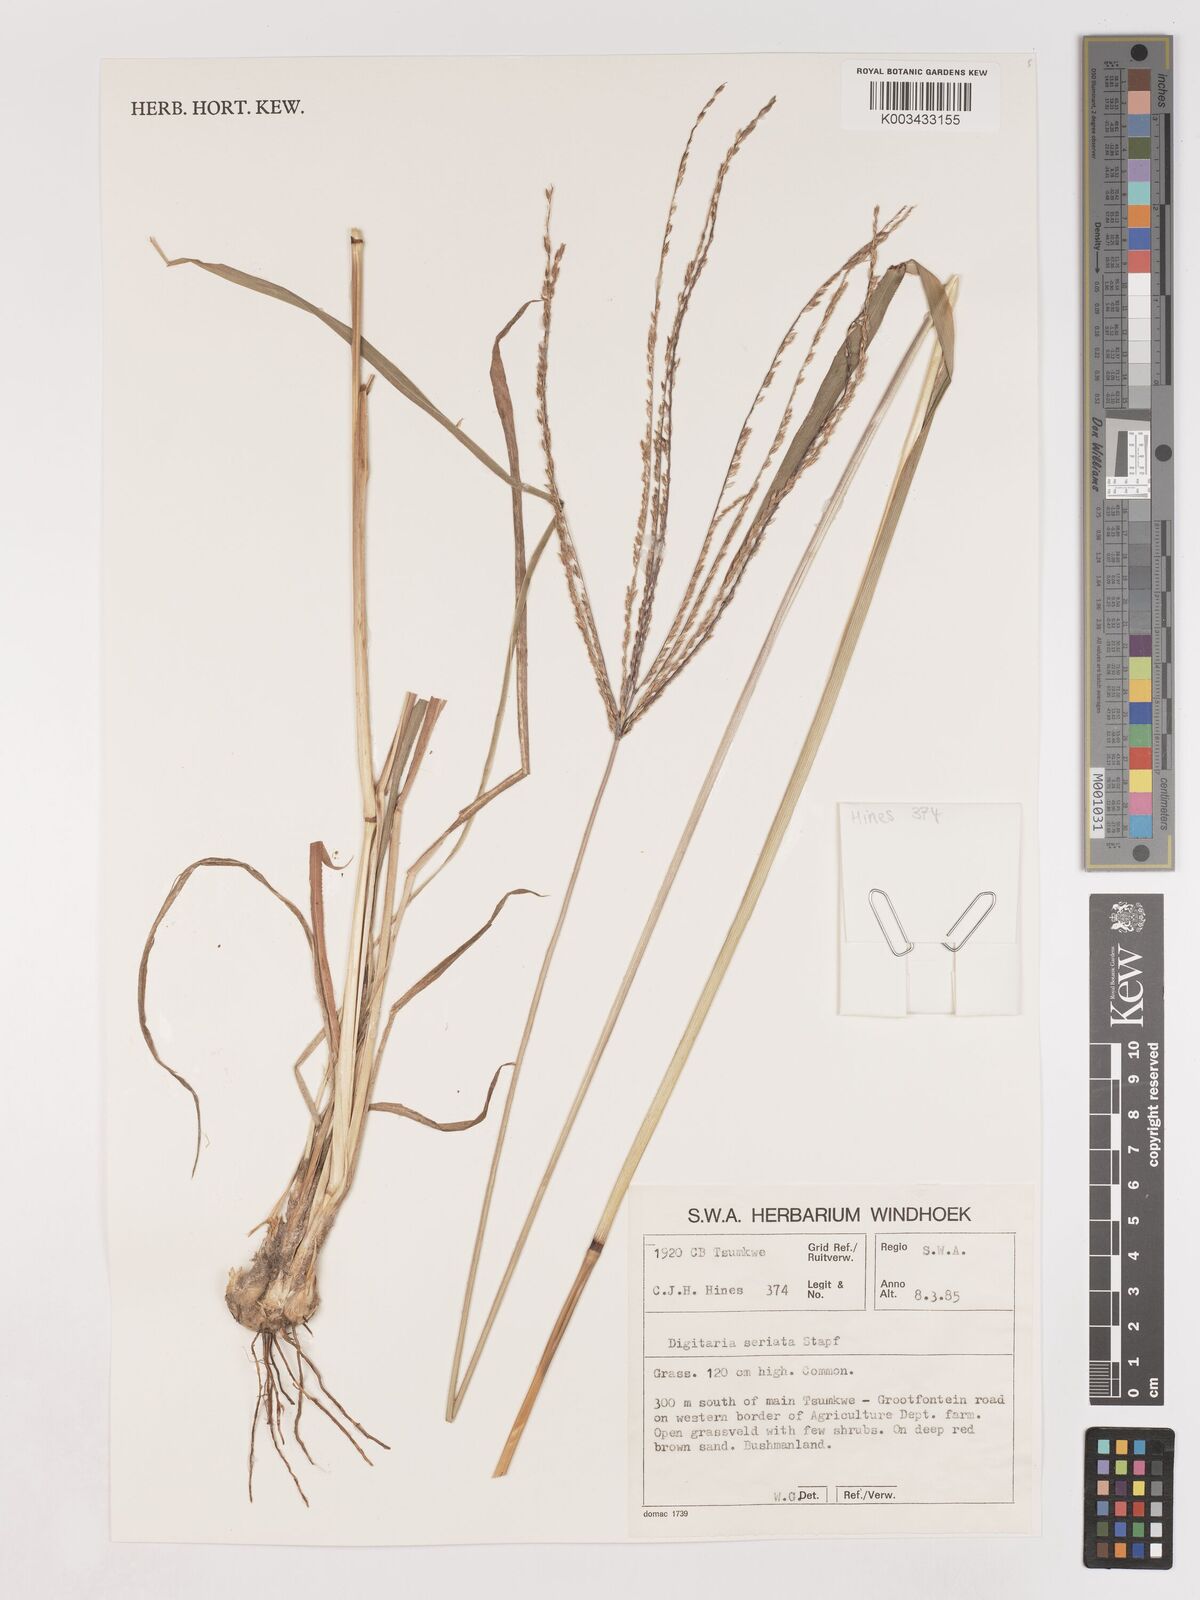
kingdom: Plantae
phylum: Tracheophyta
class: Liliopsida
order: Poales
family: Poaceae
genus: Digitaria
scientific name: Digitaria milanjiana
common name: Madagascar crabgrass
